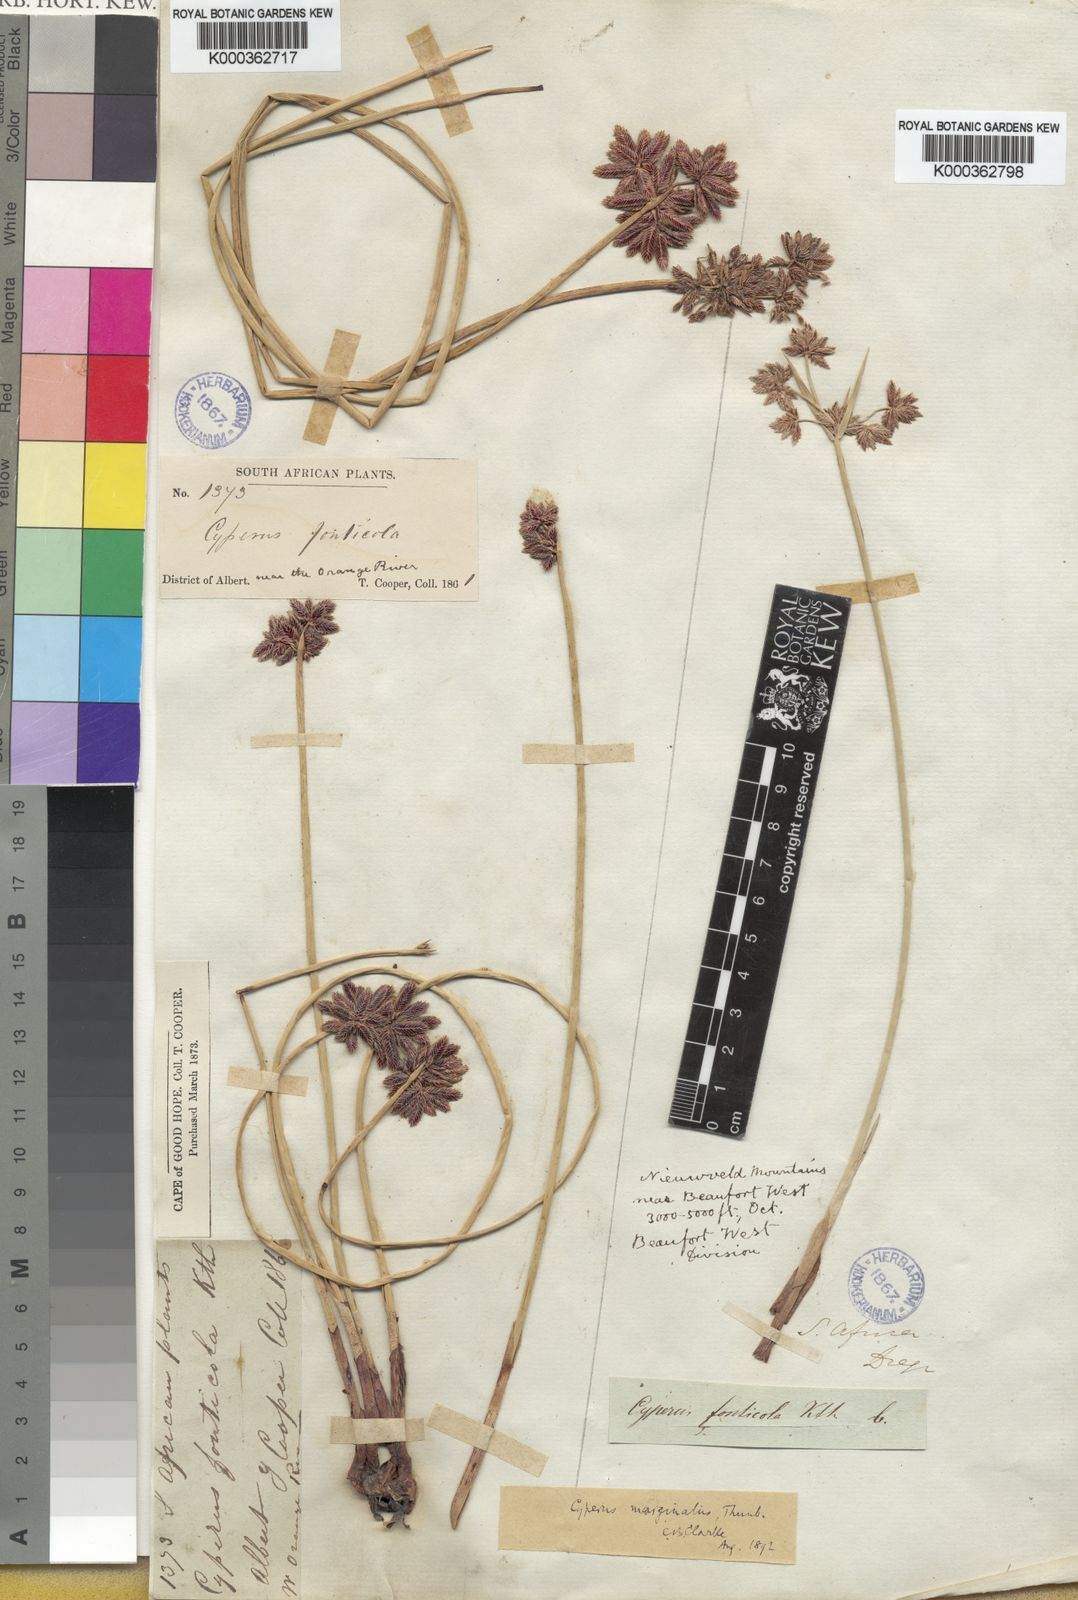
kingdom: Plantae
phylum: Tracheophyta
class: Liliopsida
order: Poales
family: Cyperaceae
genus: Cyperus
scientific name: Cyperus marginatus
